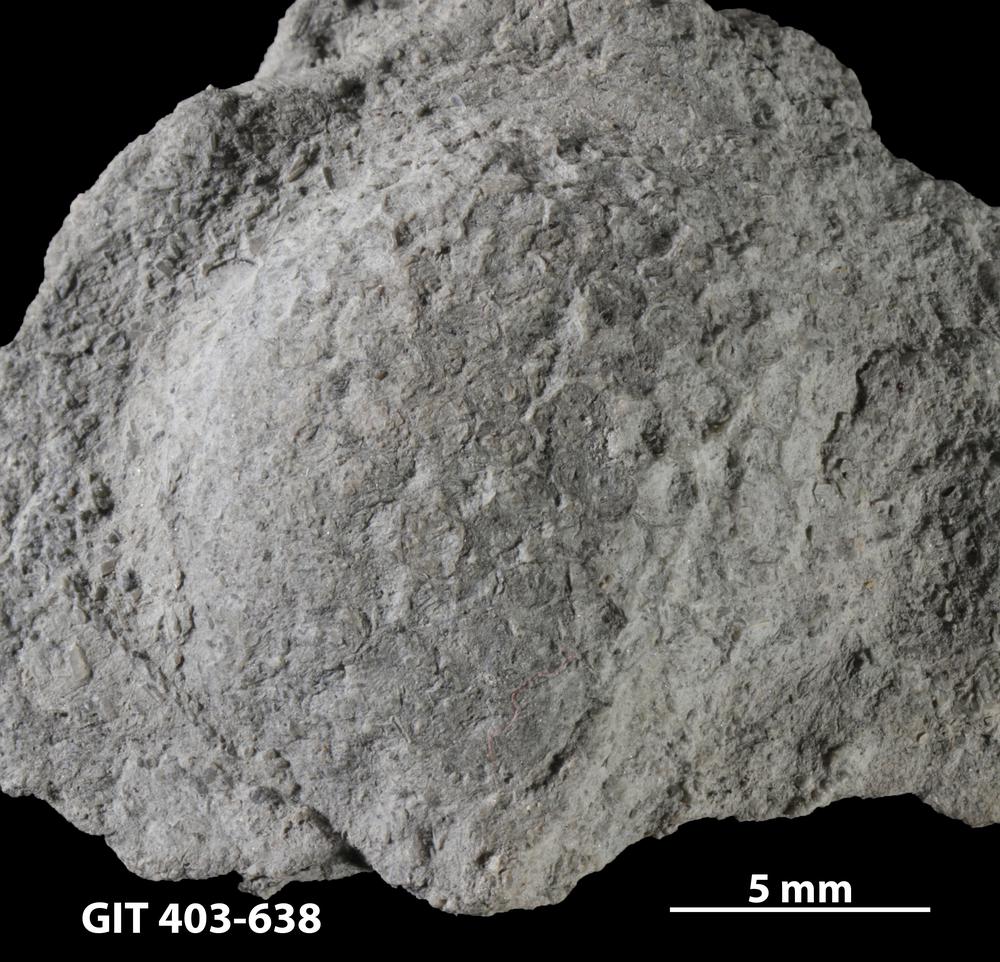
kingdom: Animalia
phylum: Cnidaria
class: Anthozoa
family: Favositidae
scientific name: Favositidae
